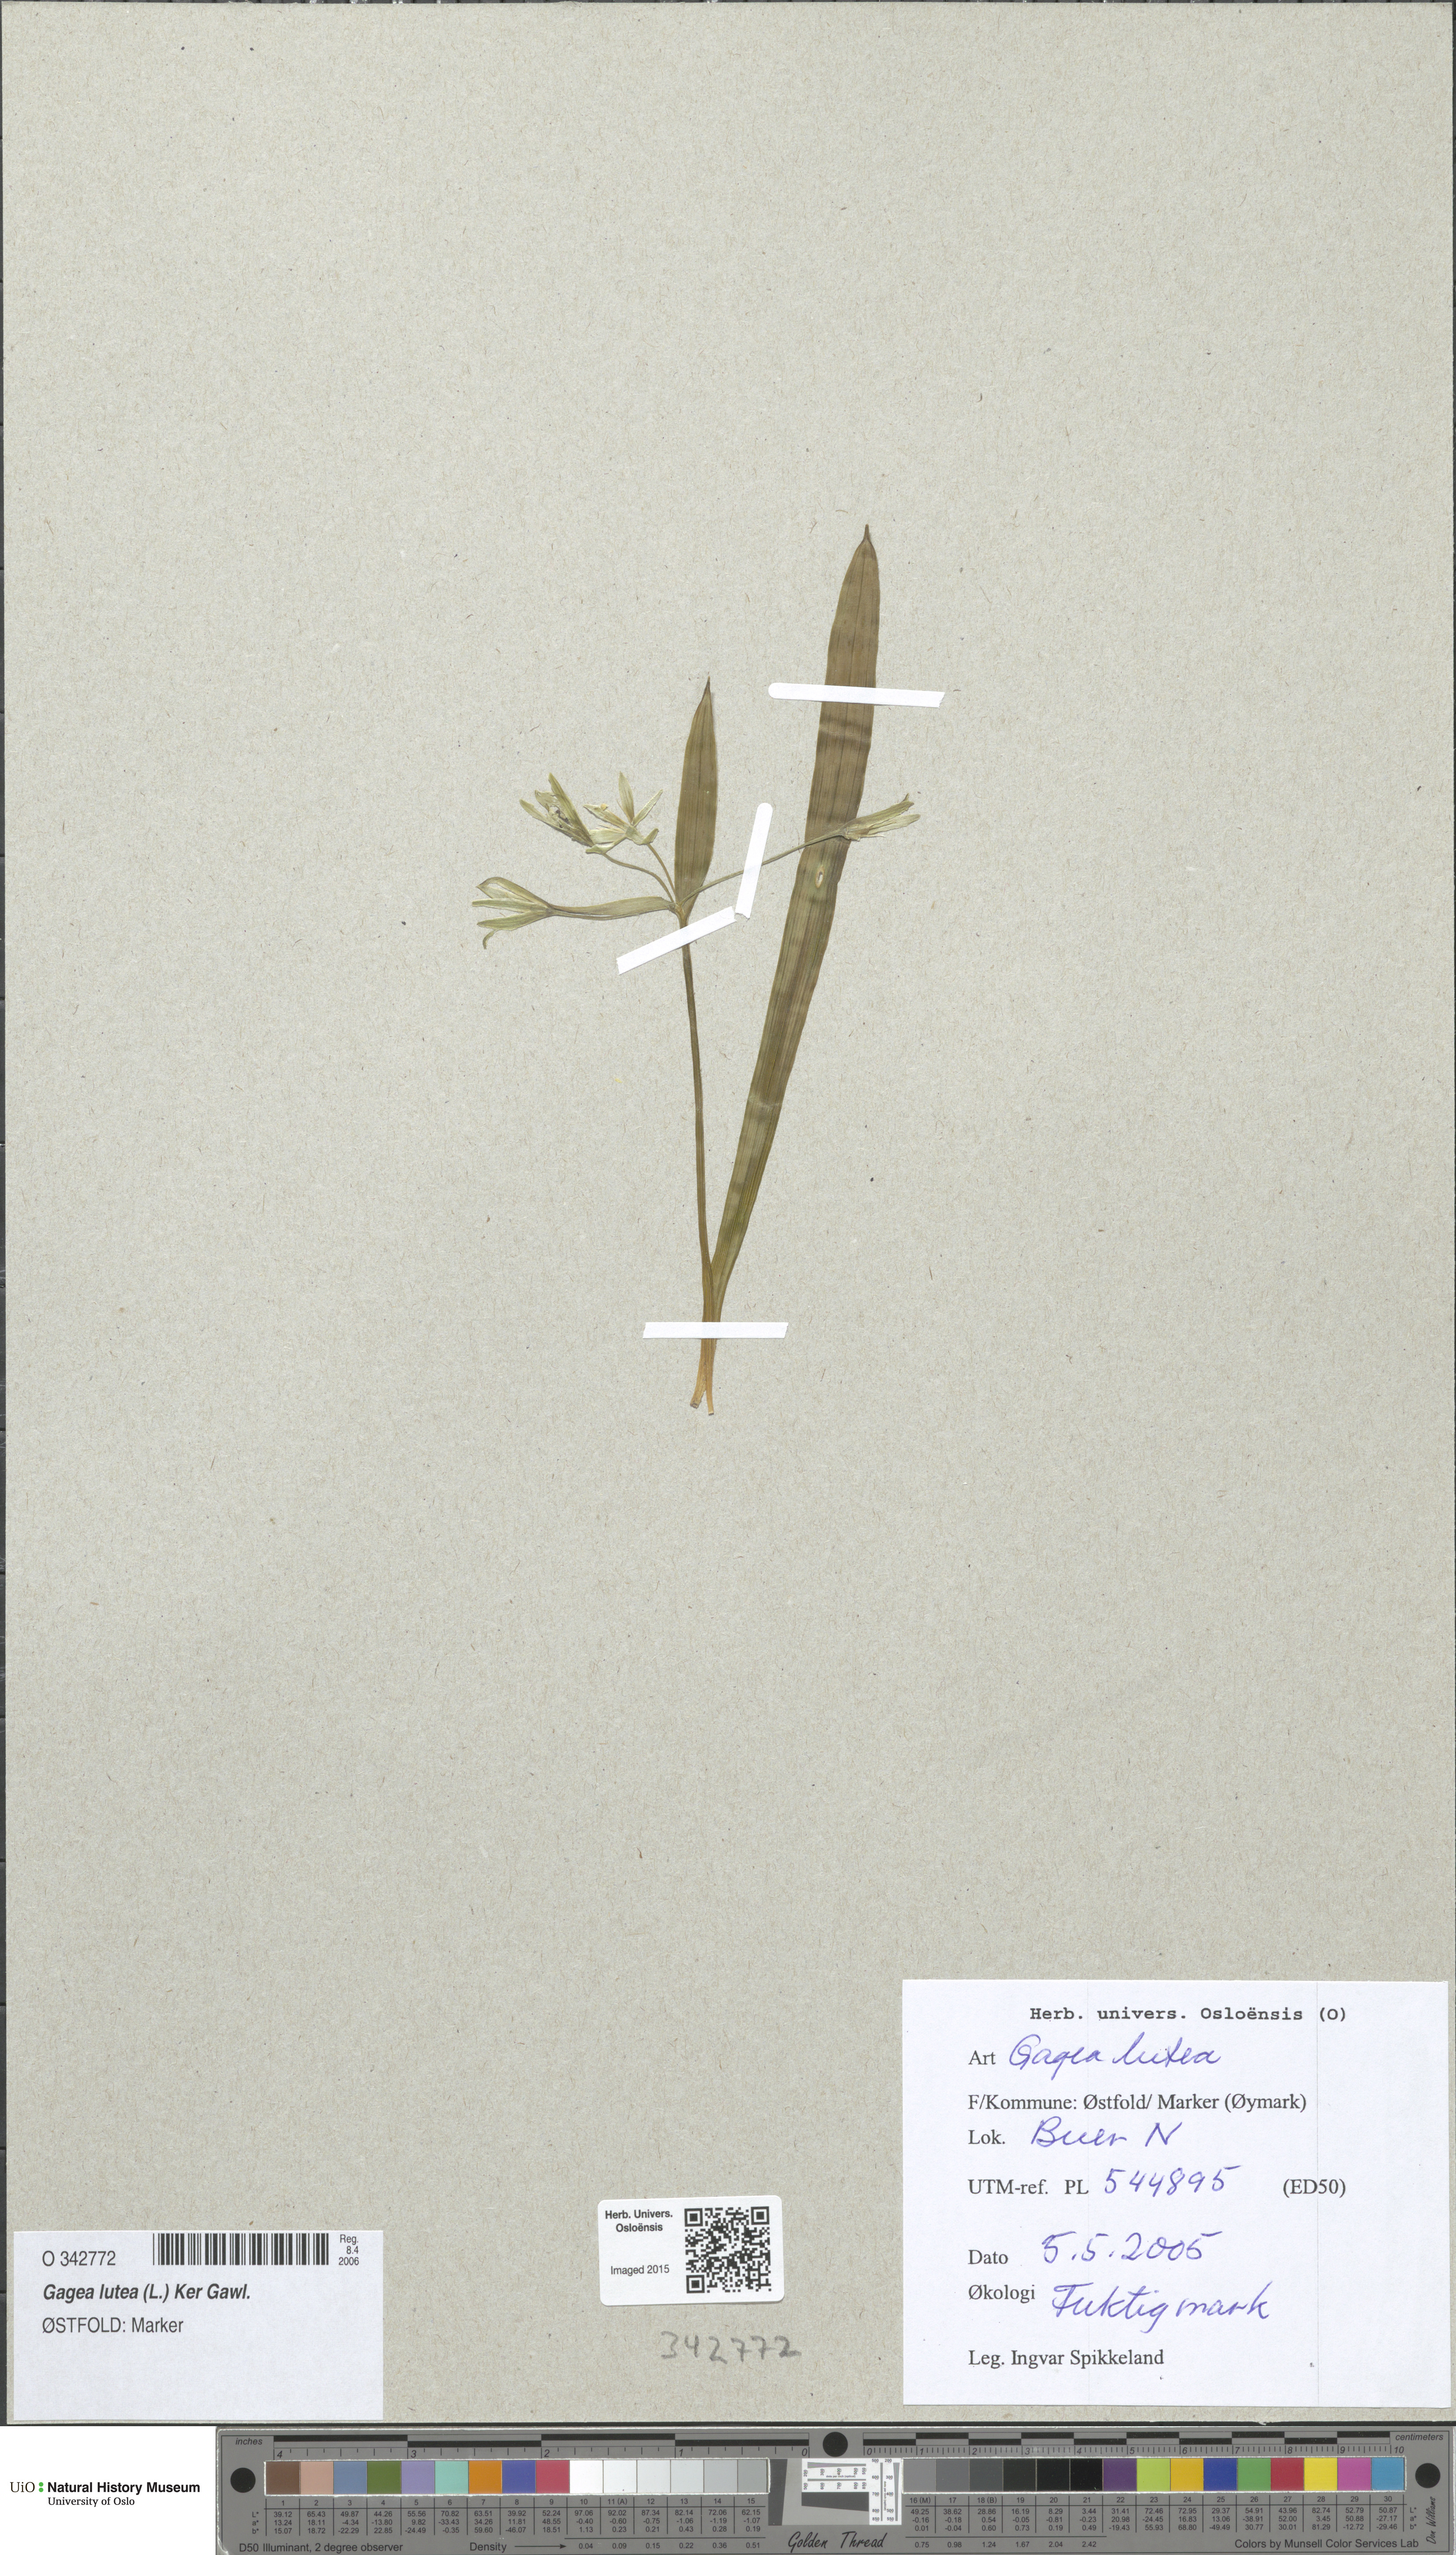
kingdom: Plantae
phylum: Tracheophyta
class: Liliopsida
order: Liliales
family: Liliaceae
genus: Gagea
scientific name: Gagea lutea
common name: Yellow star-of-bethlehem
